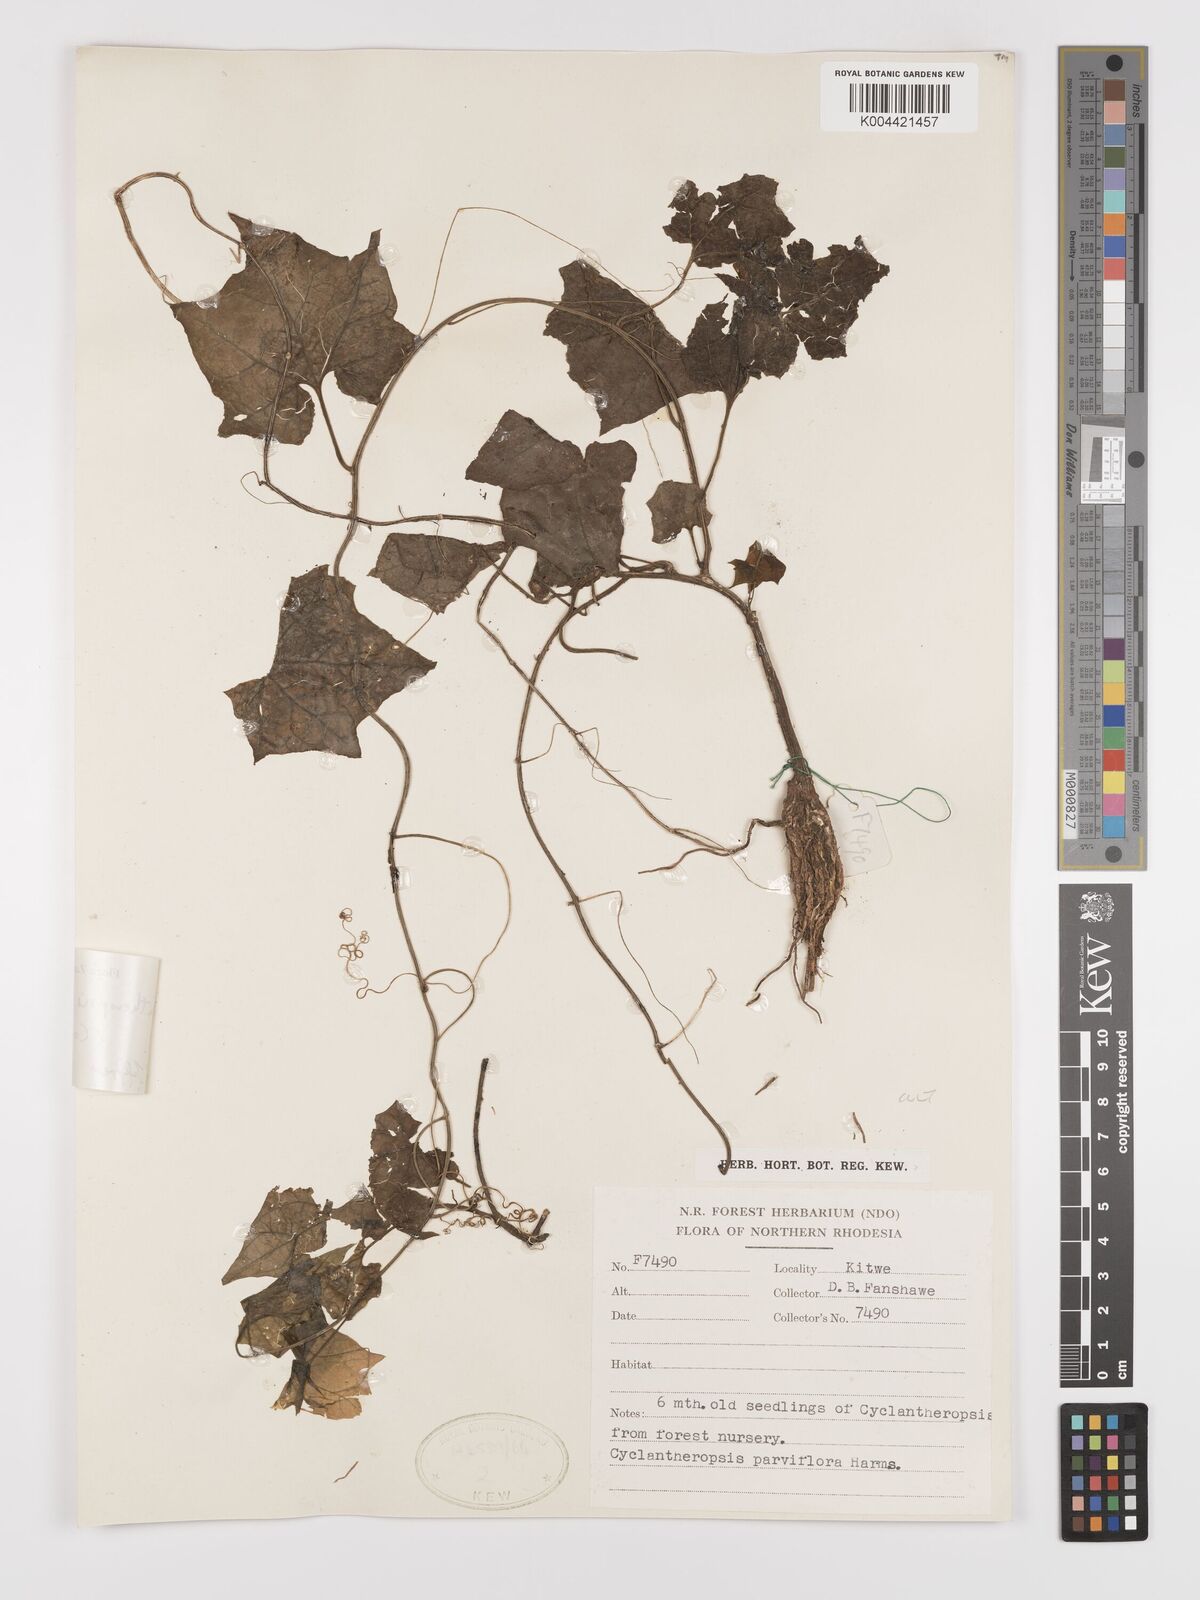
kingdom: Plantae
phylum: Tracheophyta
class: Magnoliopsida
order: Cucurbitales
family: Cucurbitaceae
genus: Cyclantheropsis
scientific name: Cyclantheropsis parviflora
